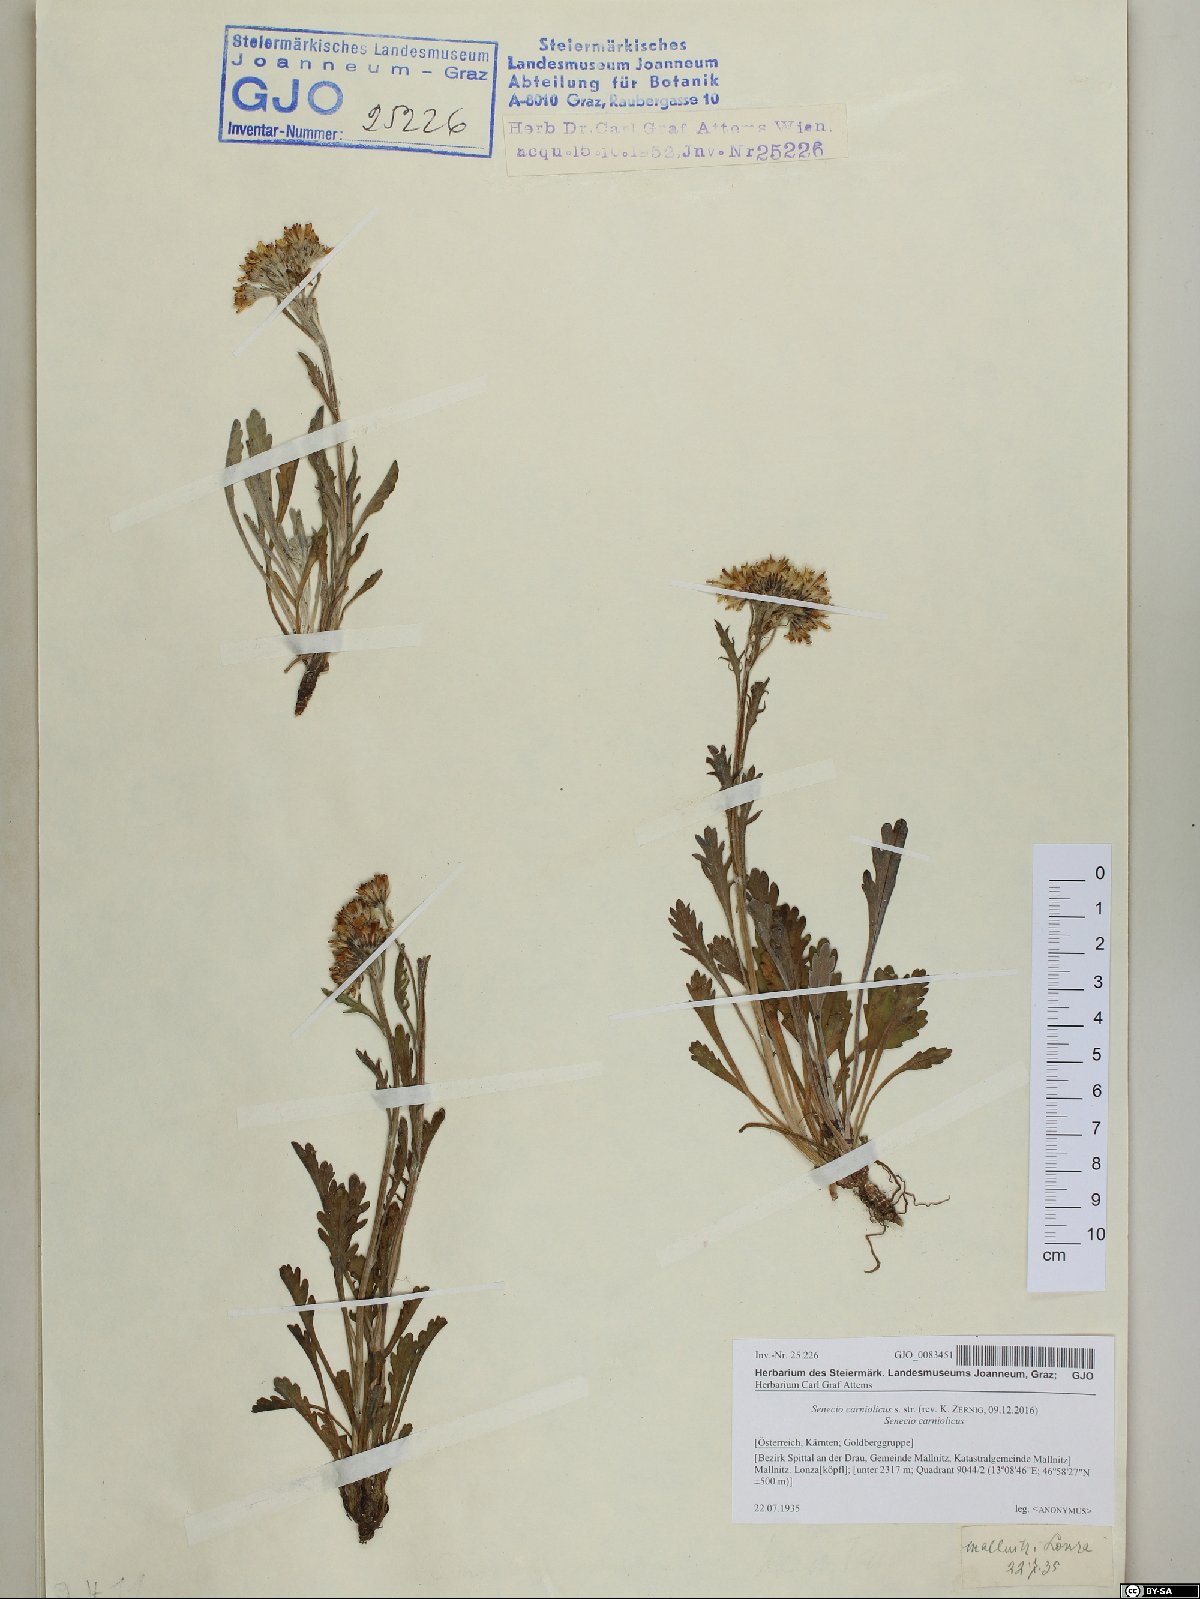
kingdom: Plantae
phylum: Tracheophyta
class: Magnoliopsida
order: Asterales
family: Asteraceae
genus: Jacobaea
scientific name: Jacobaea carniolica
